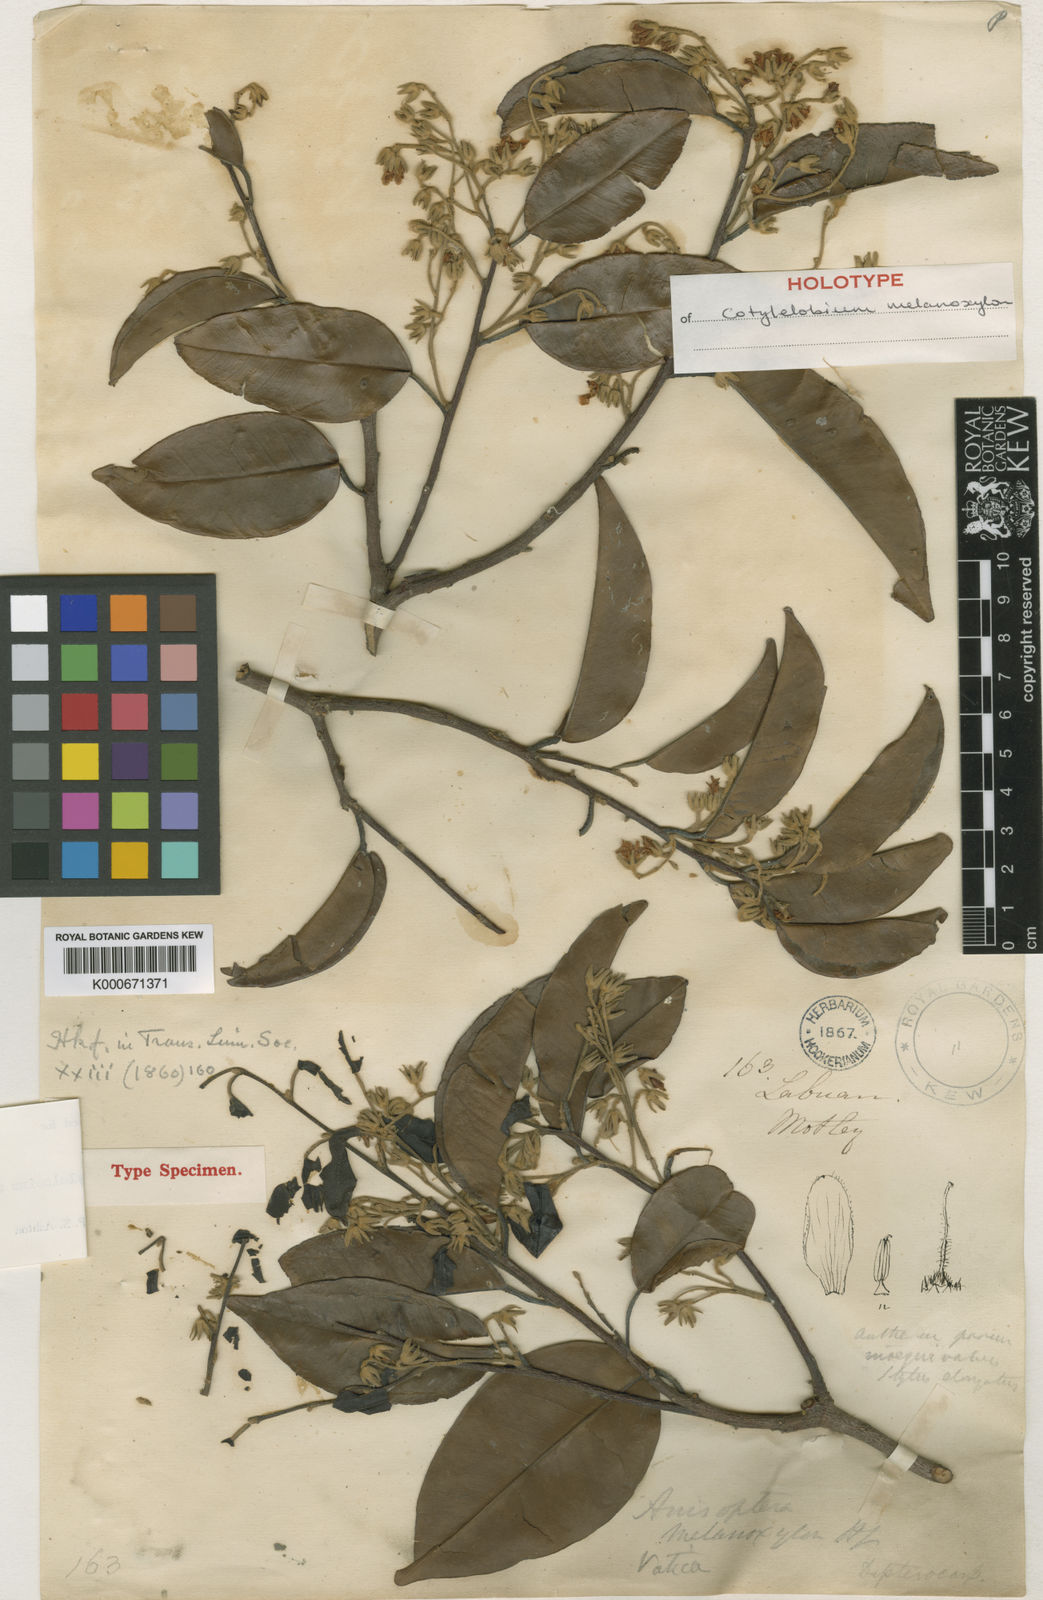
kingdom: Plantae
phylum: Tracheophyta
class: Magnoliopsida
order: Malvales
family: Dipterocarpaceae
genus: Cotylelobium
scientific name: Cotylelobium melanoxylon
